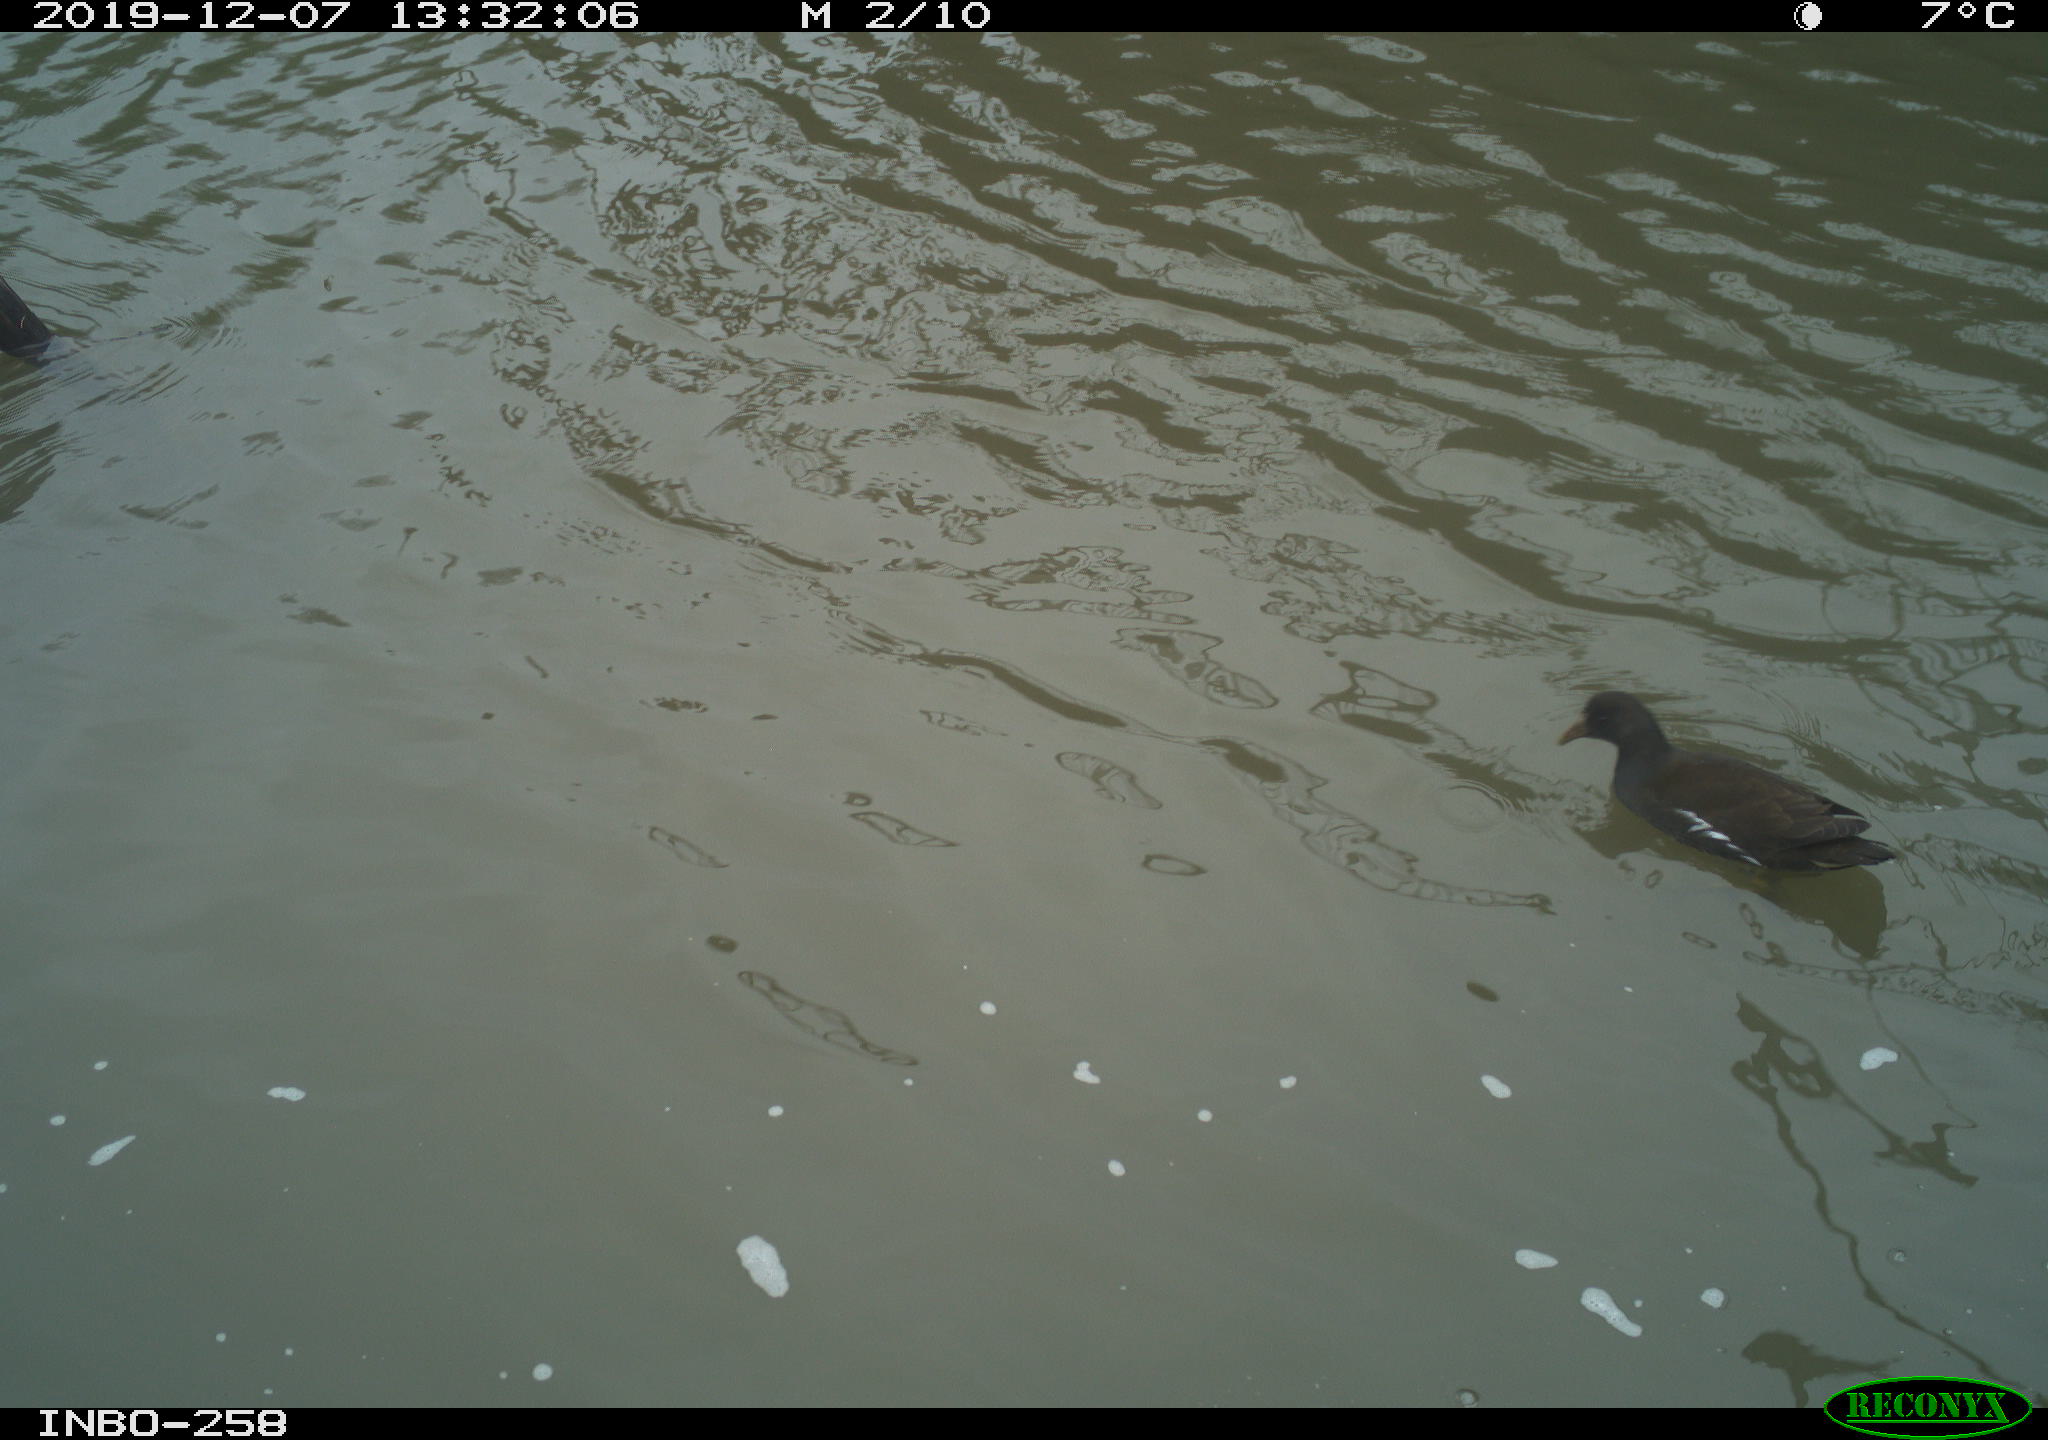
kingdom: Animalia
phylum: Chordata
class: Aves
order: Gruiformes
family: Rallidae
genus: Gallinula
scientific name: Gallinula chloropus
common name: Common moorhen
